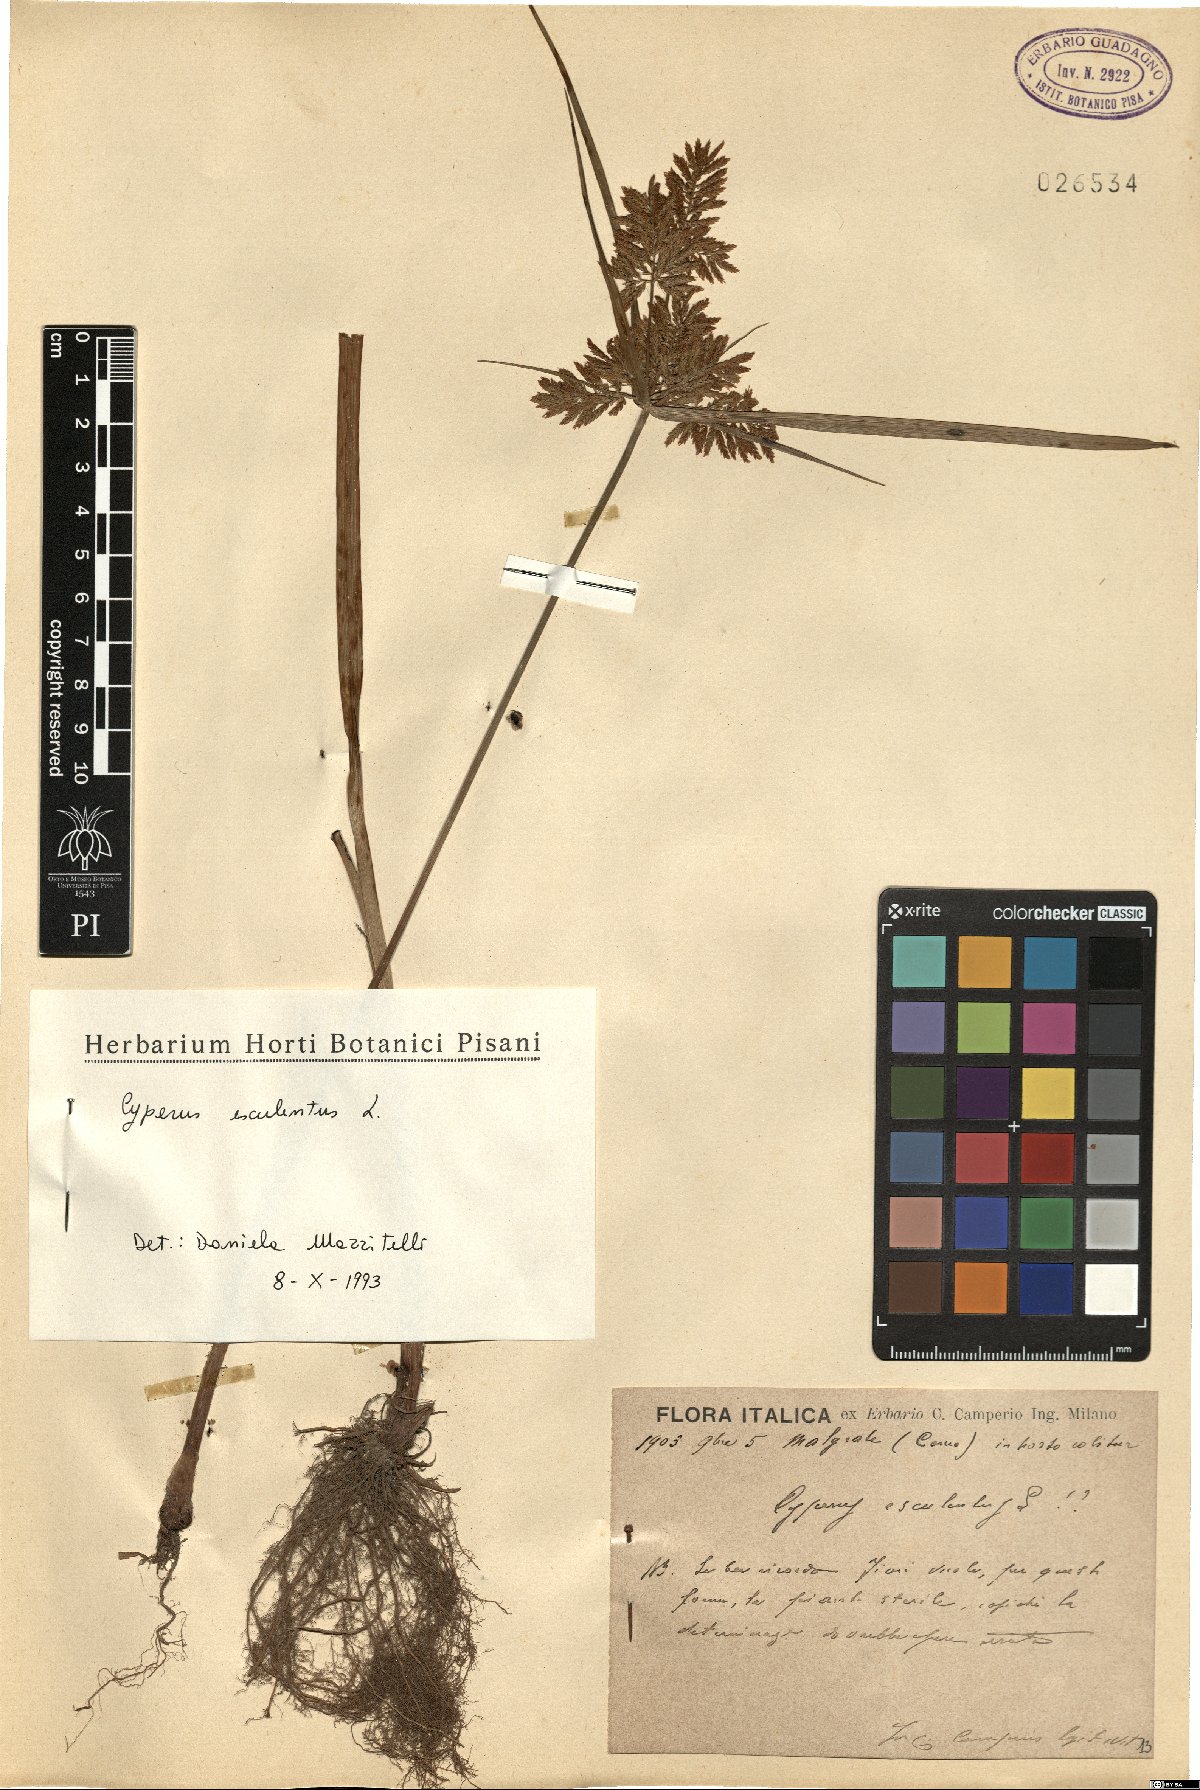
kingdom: Plantae
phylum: Tracheophyta
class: Liliopsida
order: Poales
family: Cyperaceae
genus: Cyperus
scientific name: Cyperus esculentus
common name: Yellow nutsedge
